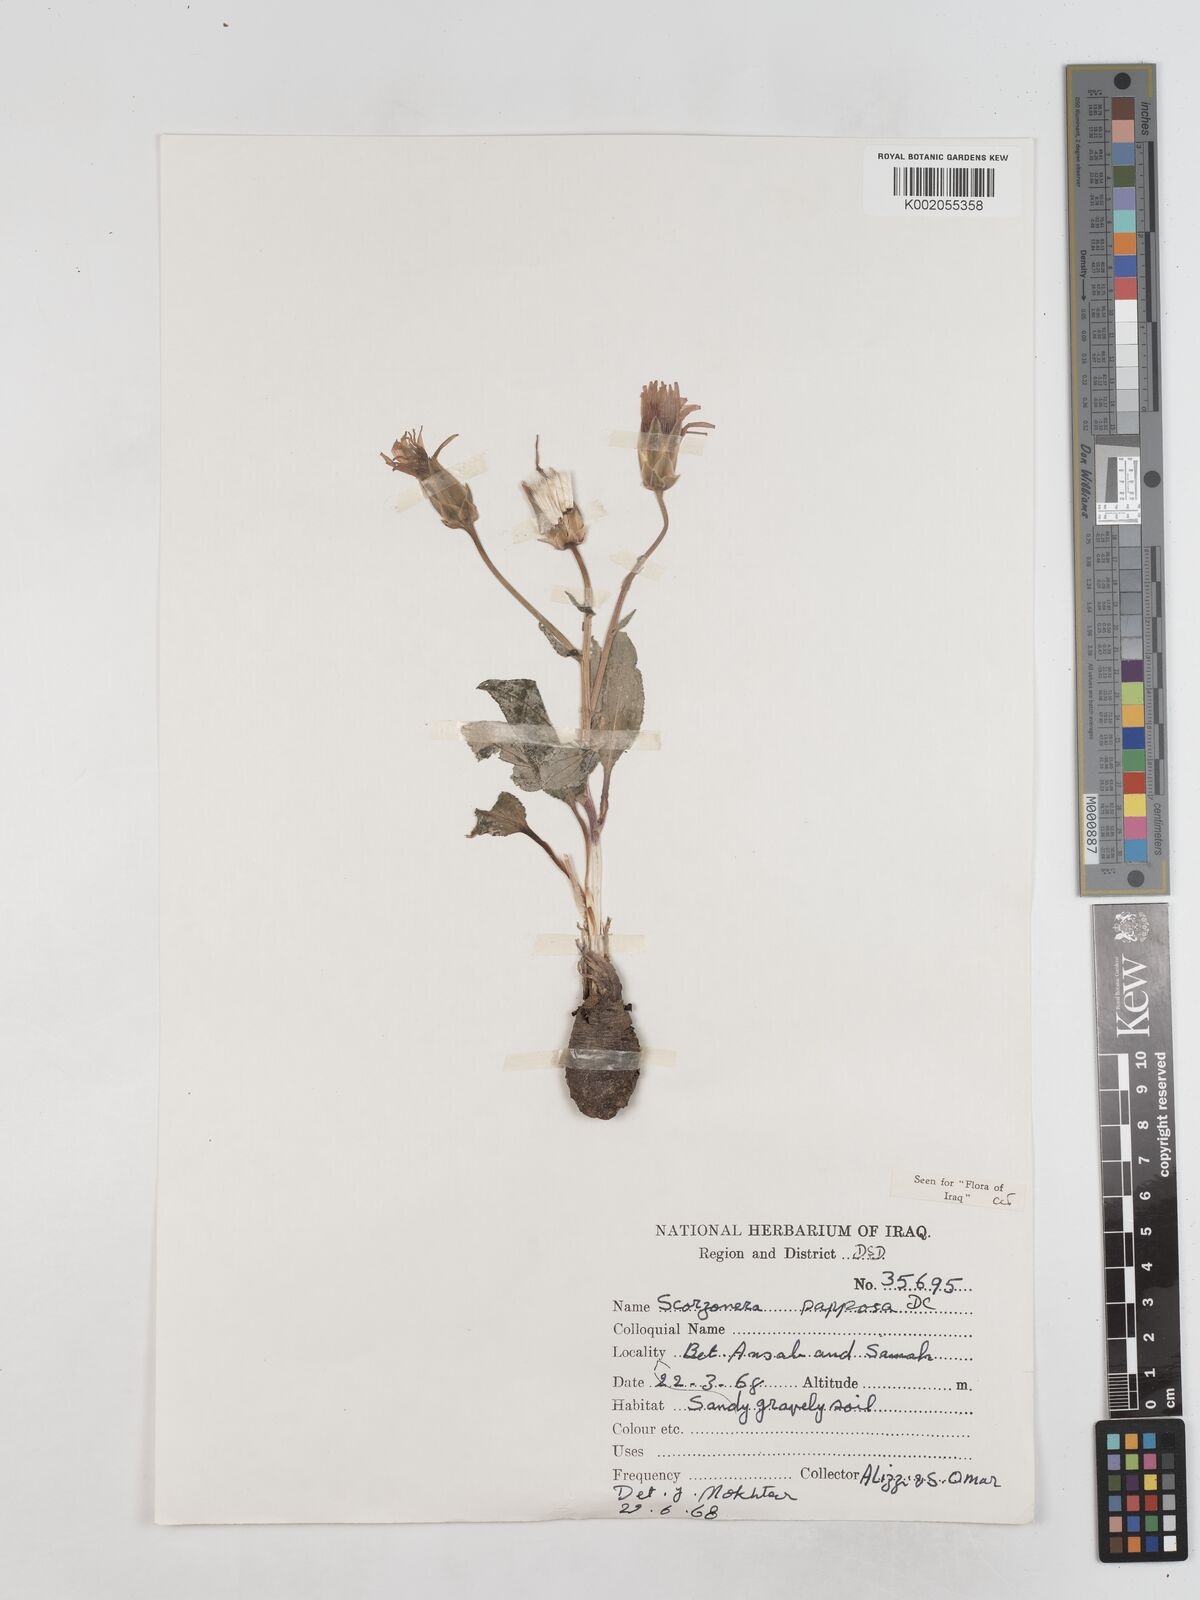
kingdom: Plantae
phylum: Tracheophyta
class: Magnoliopsida
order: Asterales
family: Asteraceae
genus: Pseudopodospermum
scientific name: Pseudopodospermum papposum
